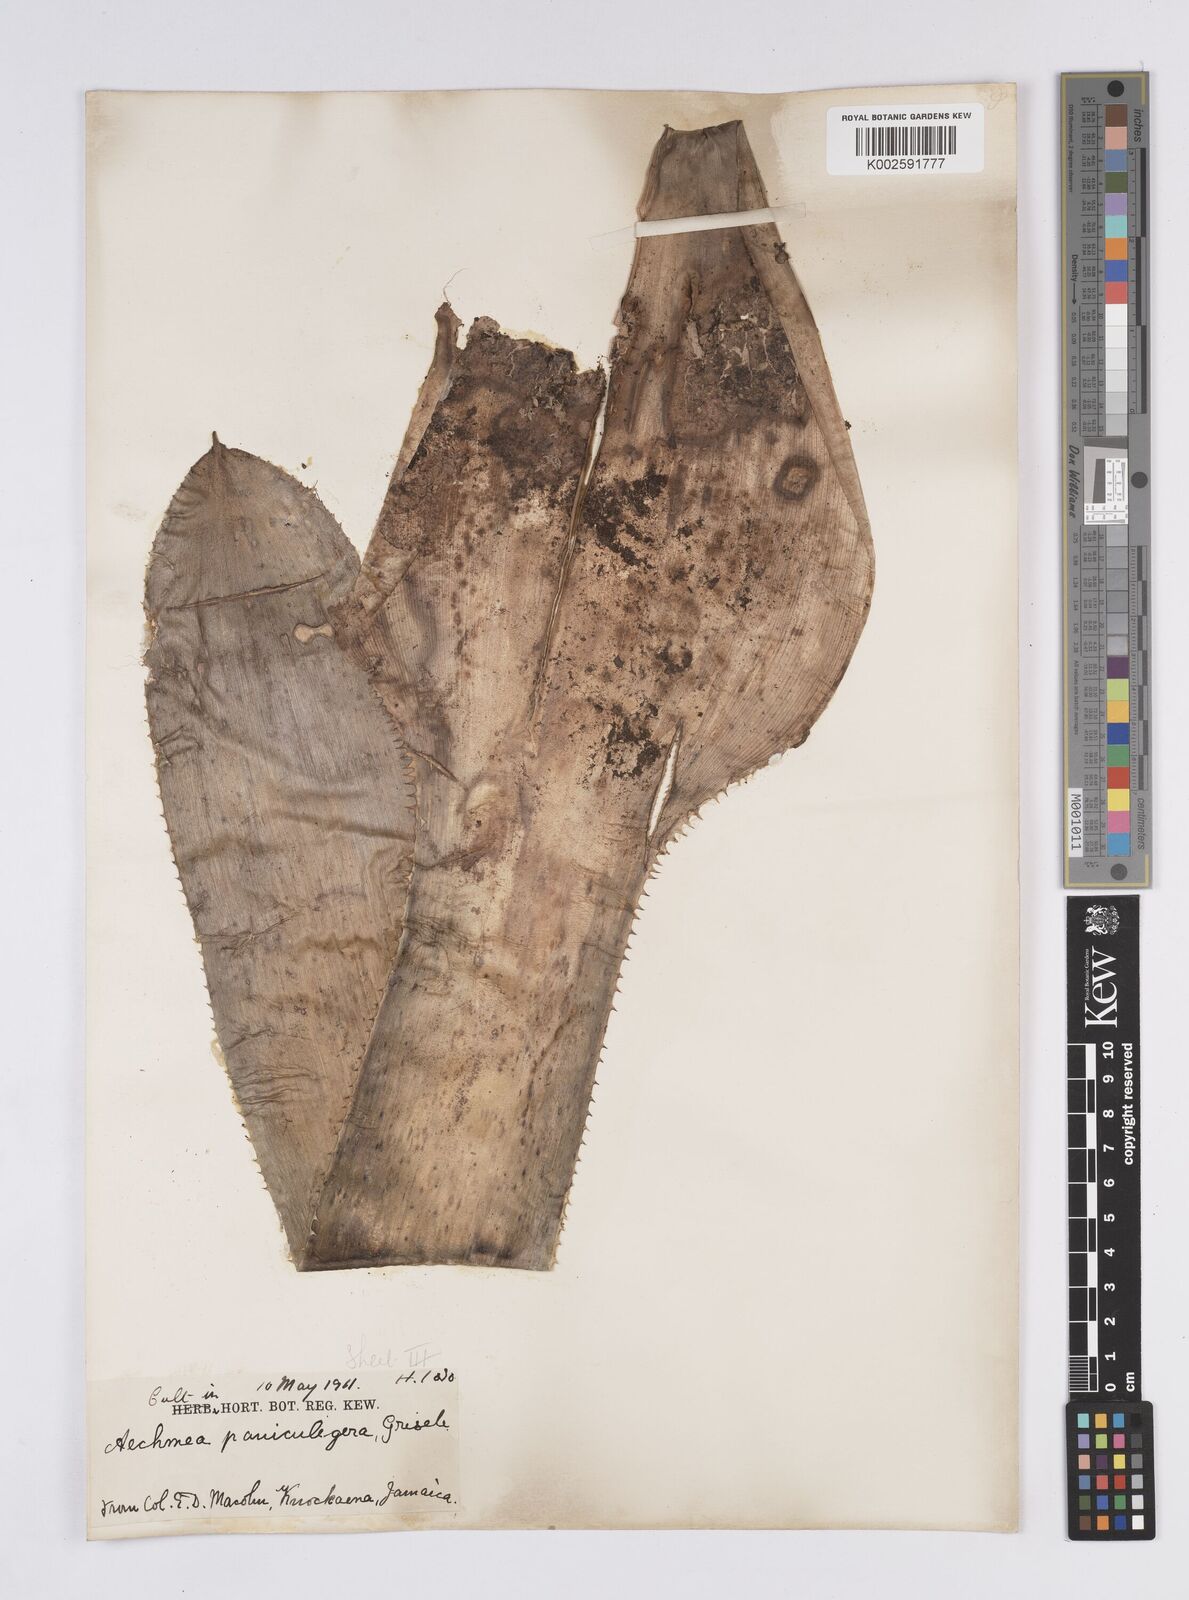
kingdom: Plantae
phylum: Tracheophyta
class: Liliopsida
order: Poales
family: Bromeliaceae
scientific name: Bromeliaceae
